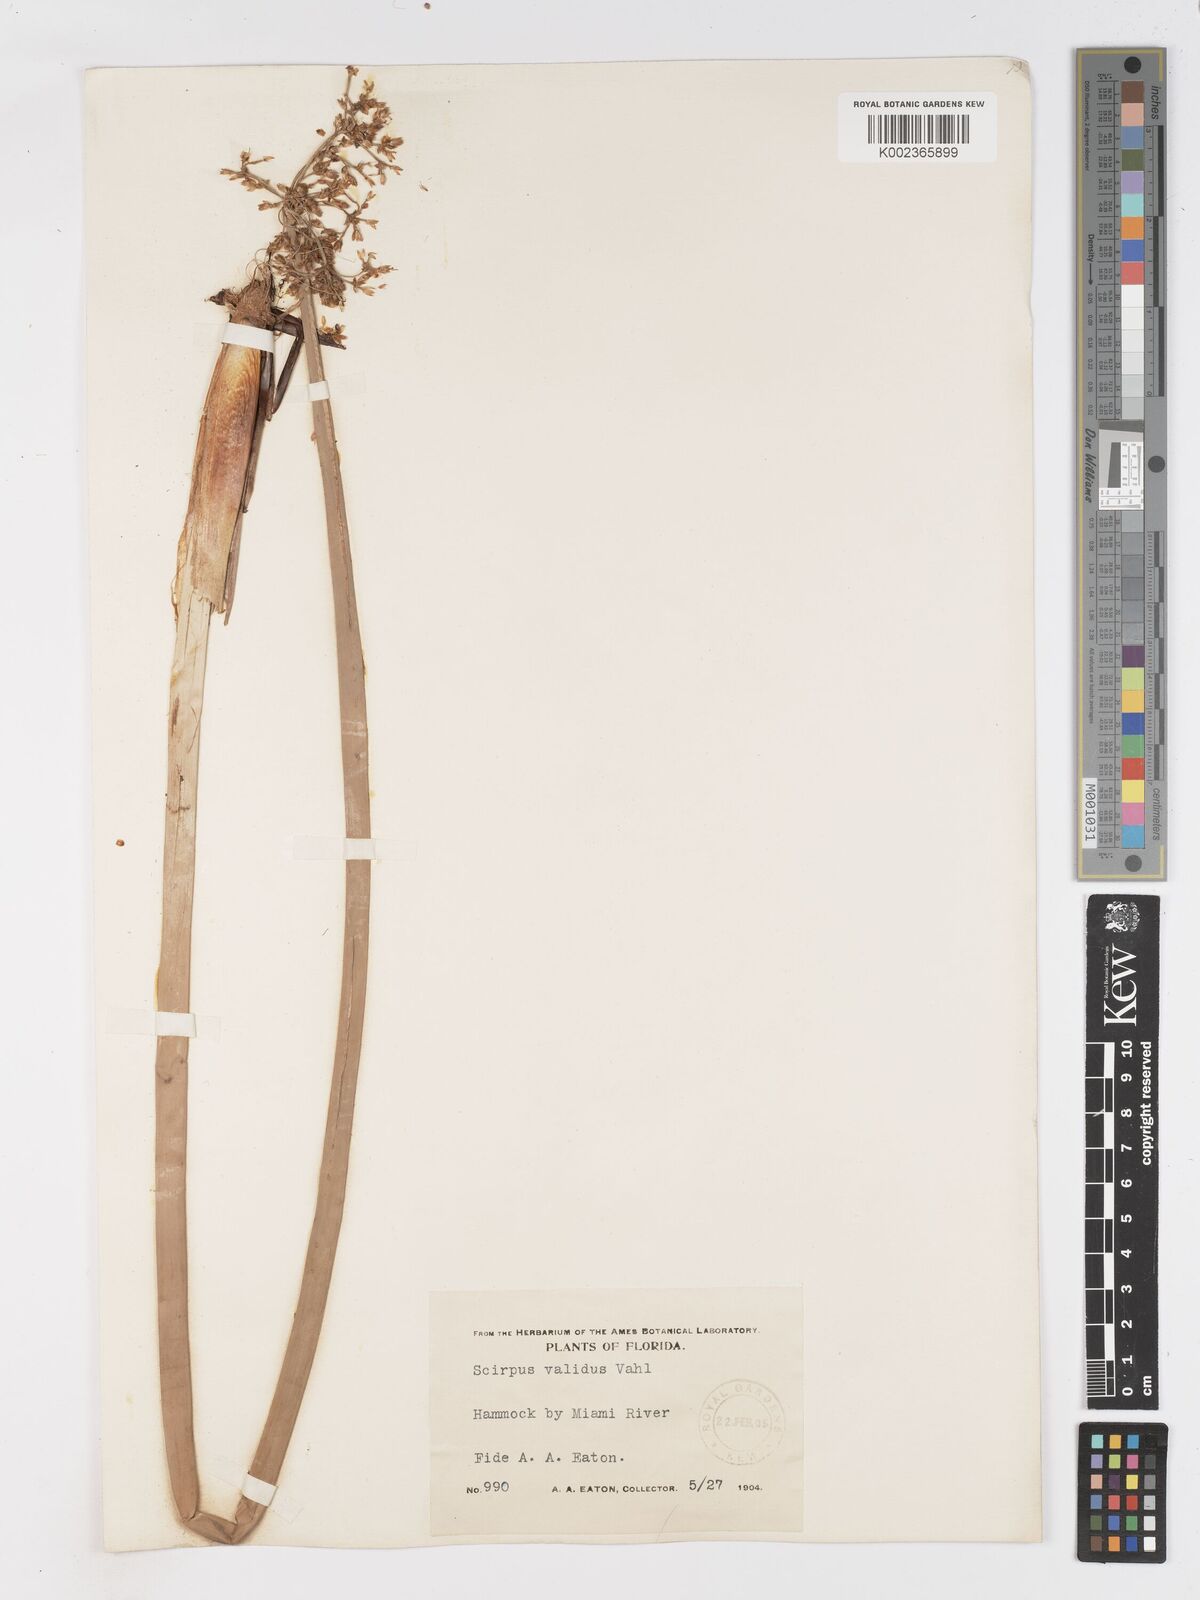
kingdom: Plantae
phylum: Tracheophyta
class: Liliopsida
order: Poales
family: Cyperaceae
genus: Schoenoplectus
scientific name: Schoenoplectus californicus
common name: California bulrush
